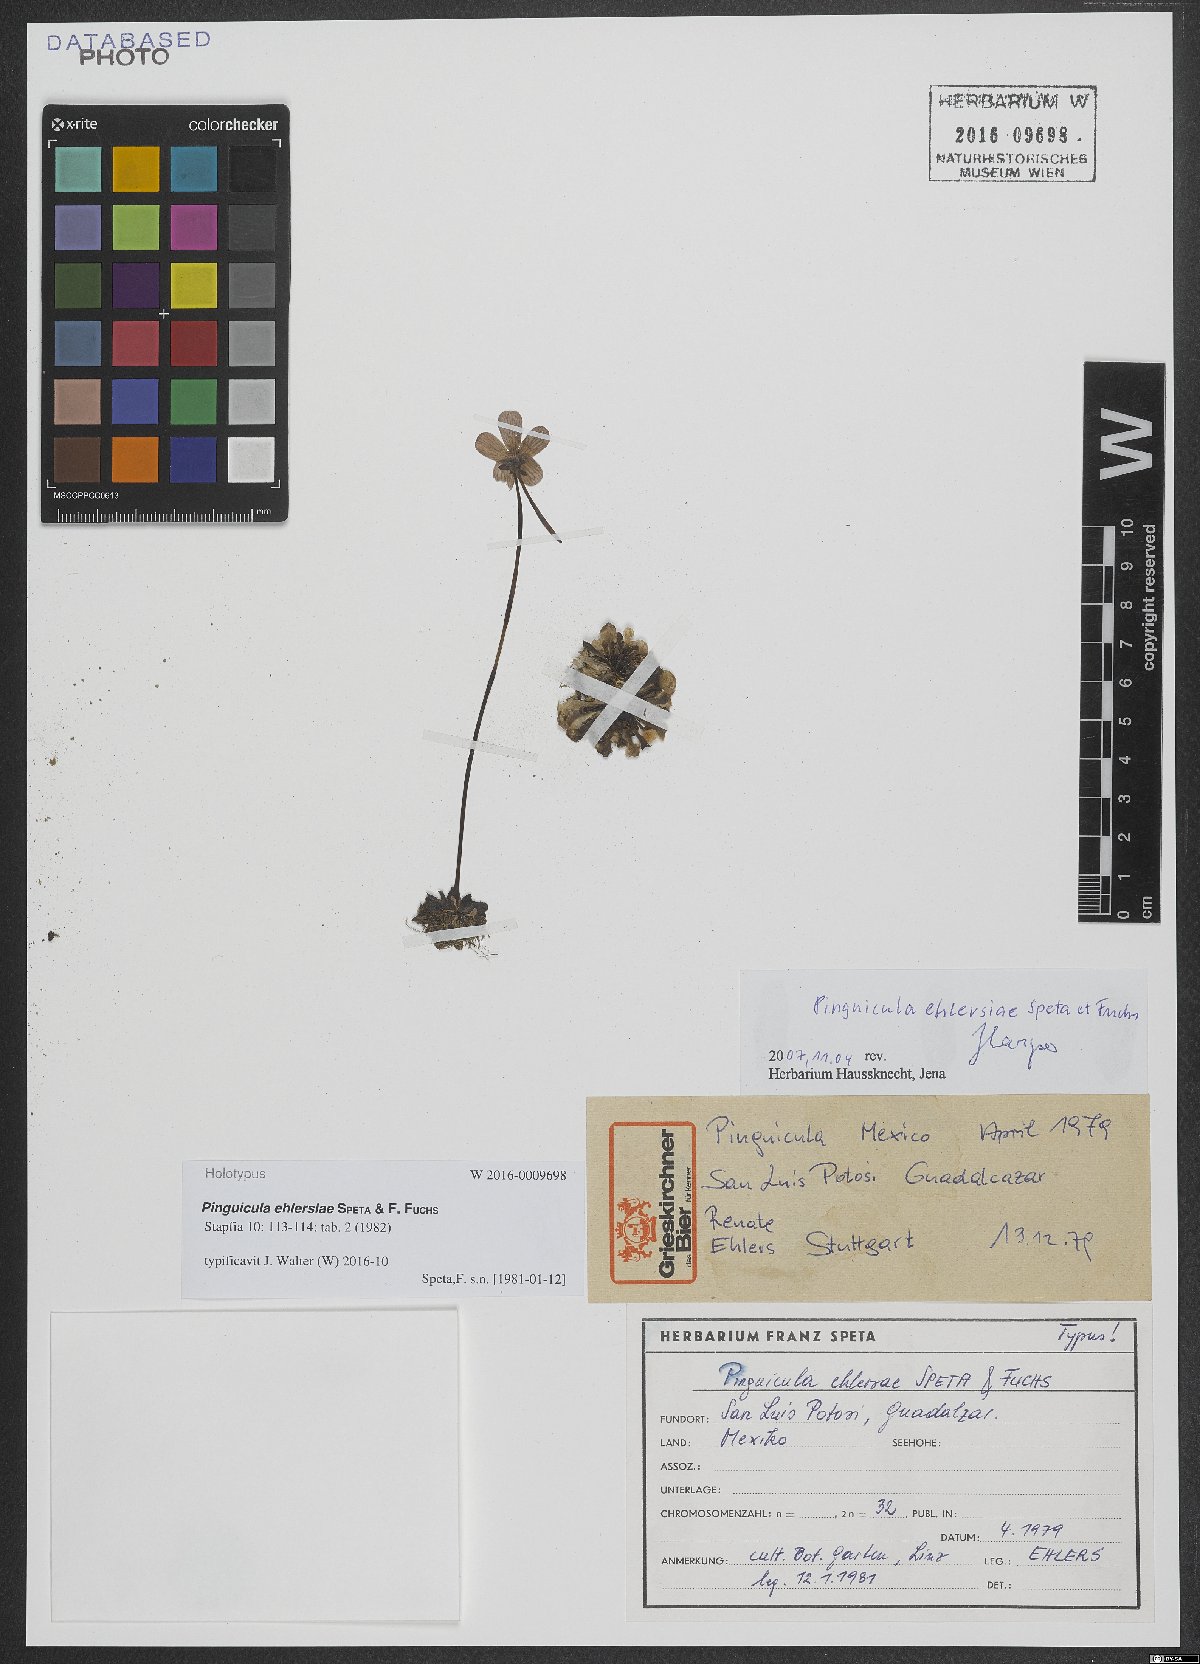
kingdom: Plantae
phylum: Tracheophyta
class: Magnoliopsida
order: Lamiales
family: Lentibulariaceae
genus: Pinguicula
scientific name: Pinguicula ehlersiae
